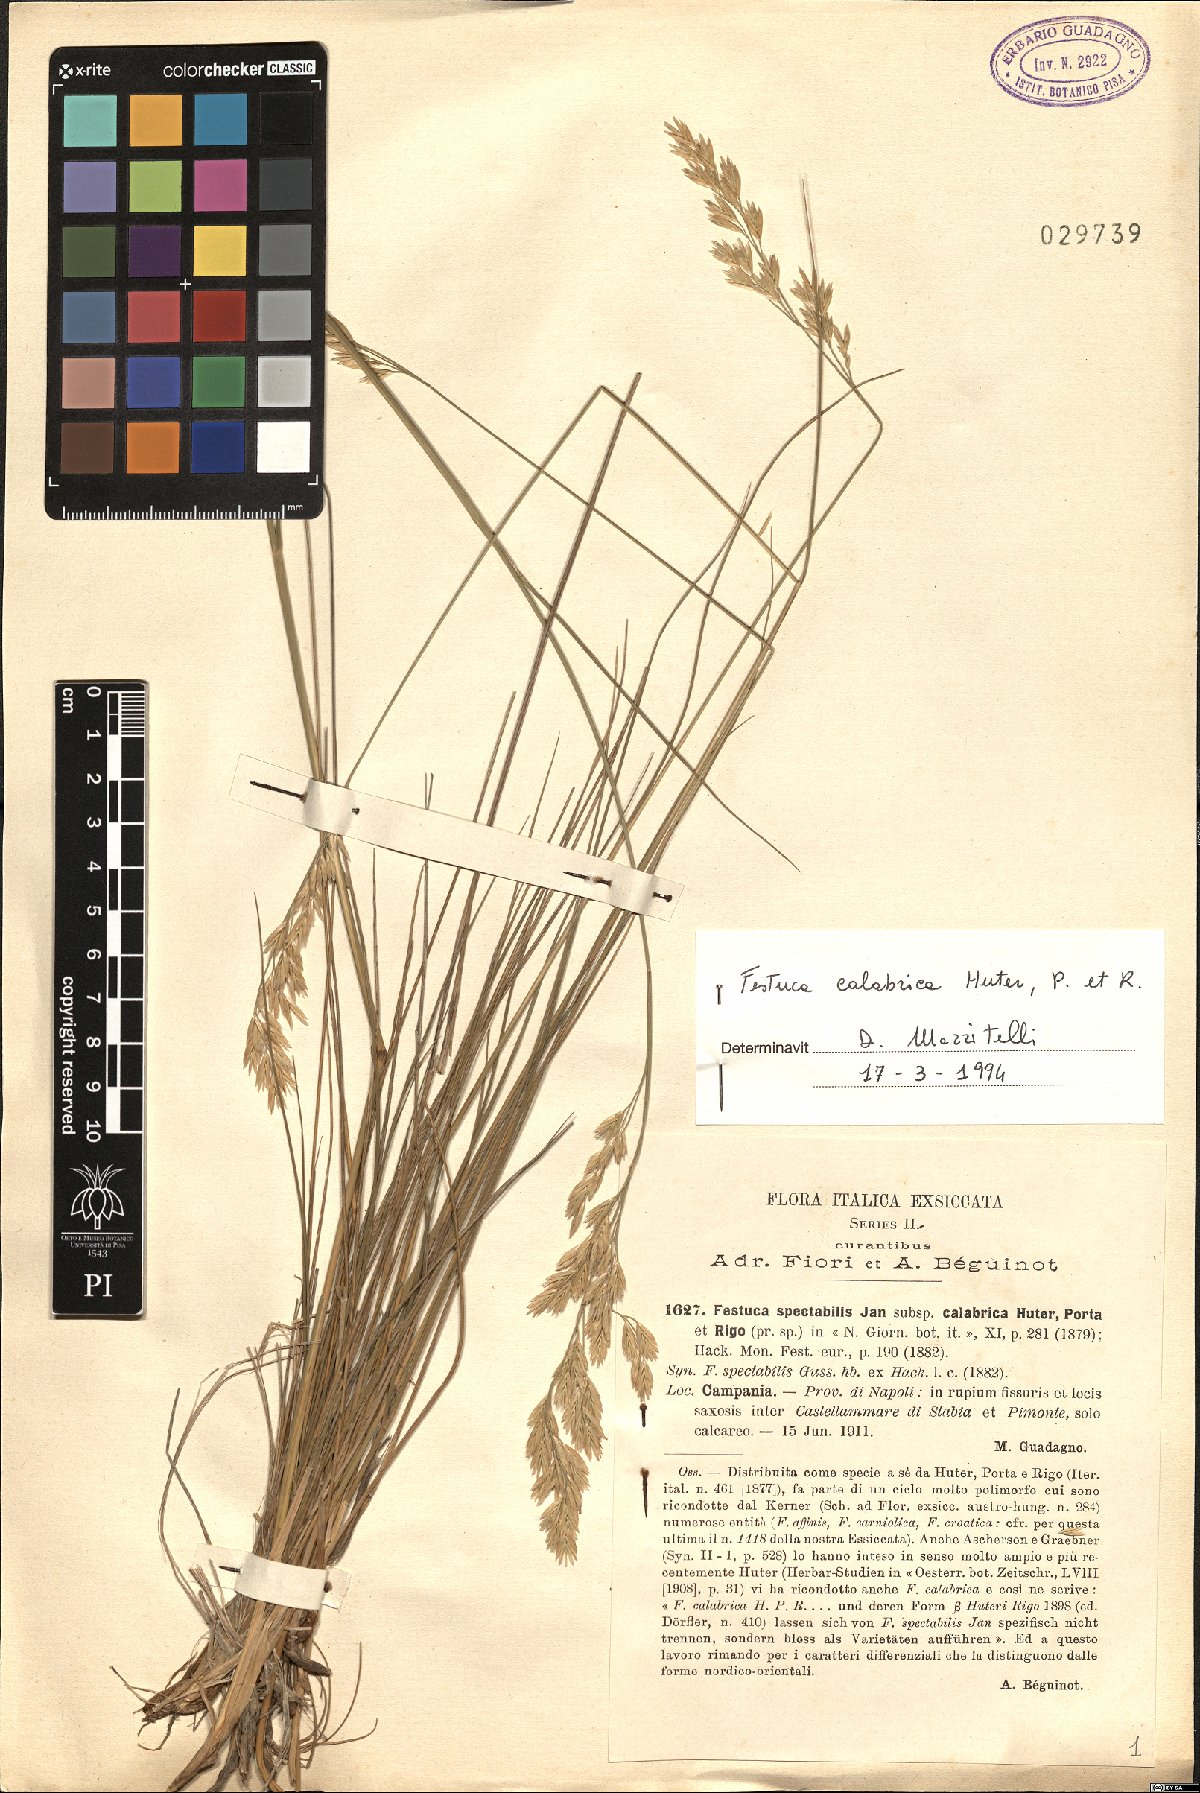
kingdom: Plantae
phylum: Tracheophyta
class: Liliopsida
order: Poales
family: Poaceae
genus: Festuca
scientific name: Festuca calabrica
